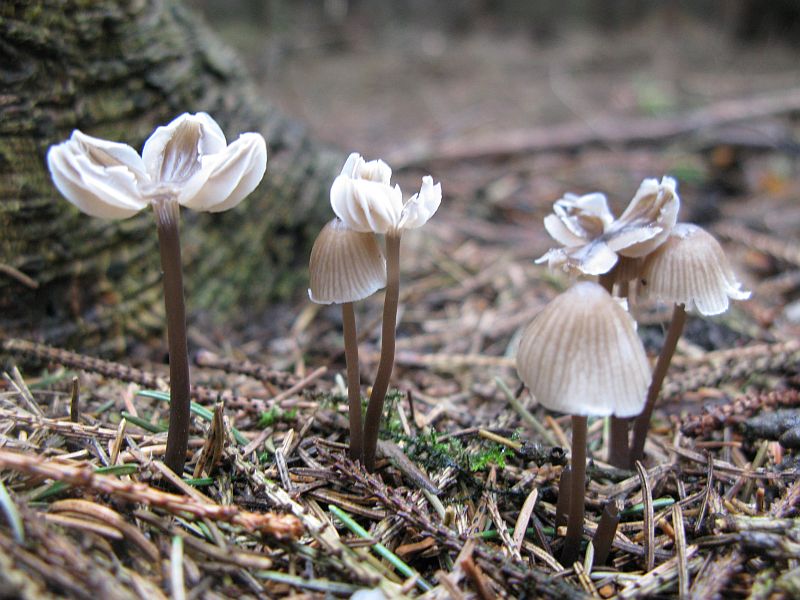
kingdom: Fungi
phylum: Basidiomycota
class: Agaricomycetes
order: Agaricales
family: Mycenaceae
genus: Mycena
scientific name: Mycena abramsii
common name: sommer-huesvamp
